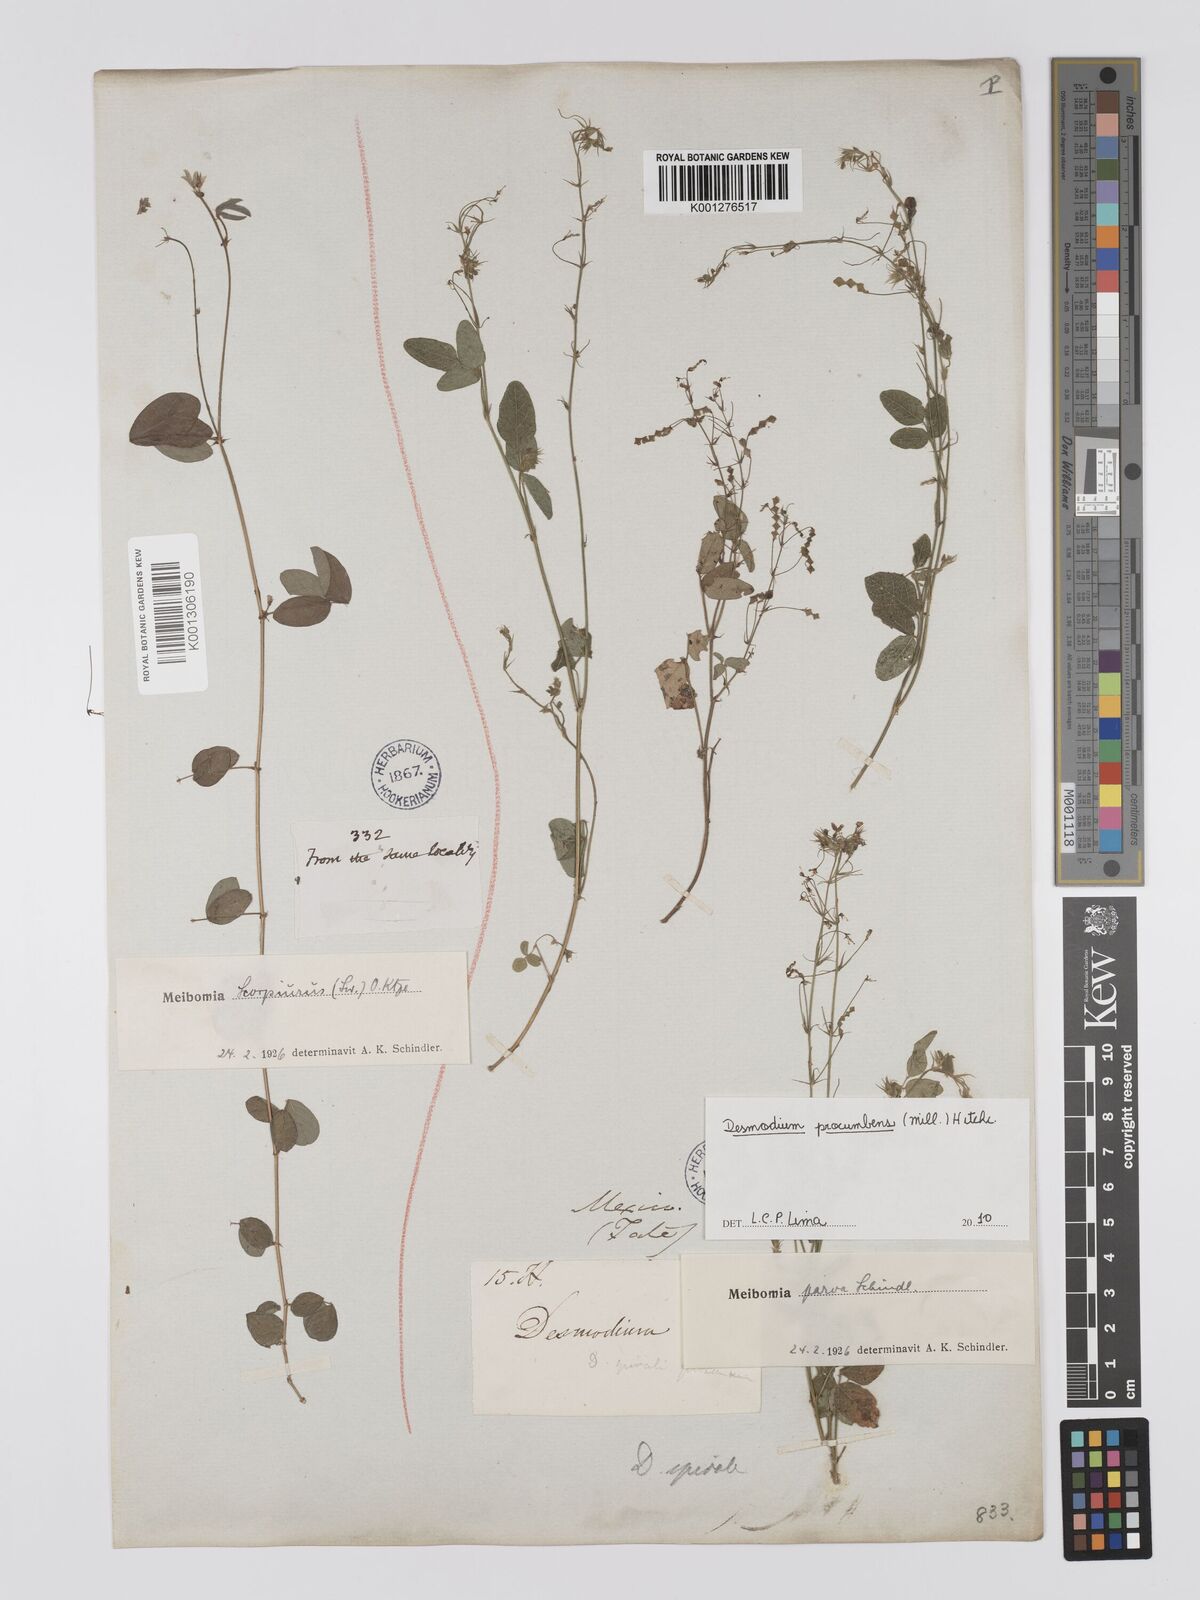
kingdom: Plantae
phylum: Tracheophyta
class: Magnoliopsida
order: Fabales
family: Fabaceae
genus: Desmodium
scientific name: Desmodium procumbens
